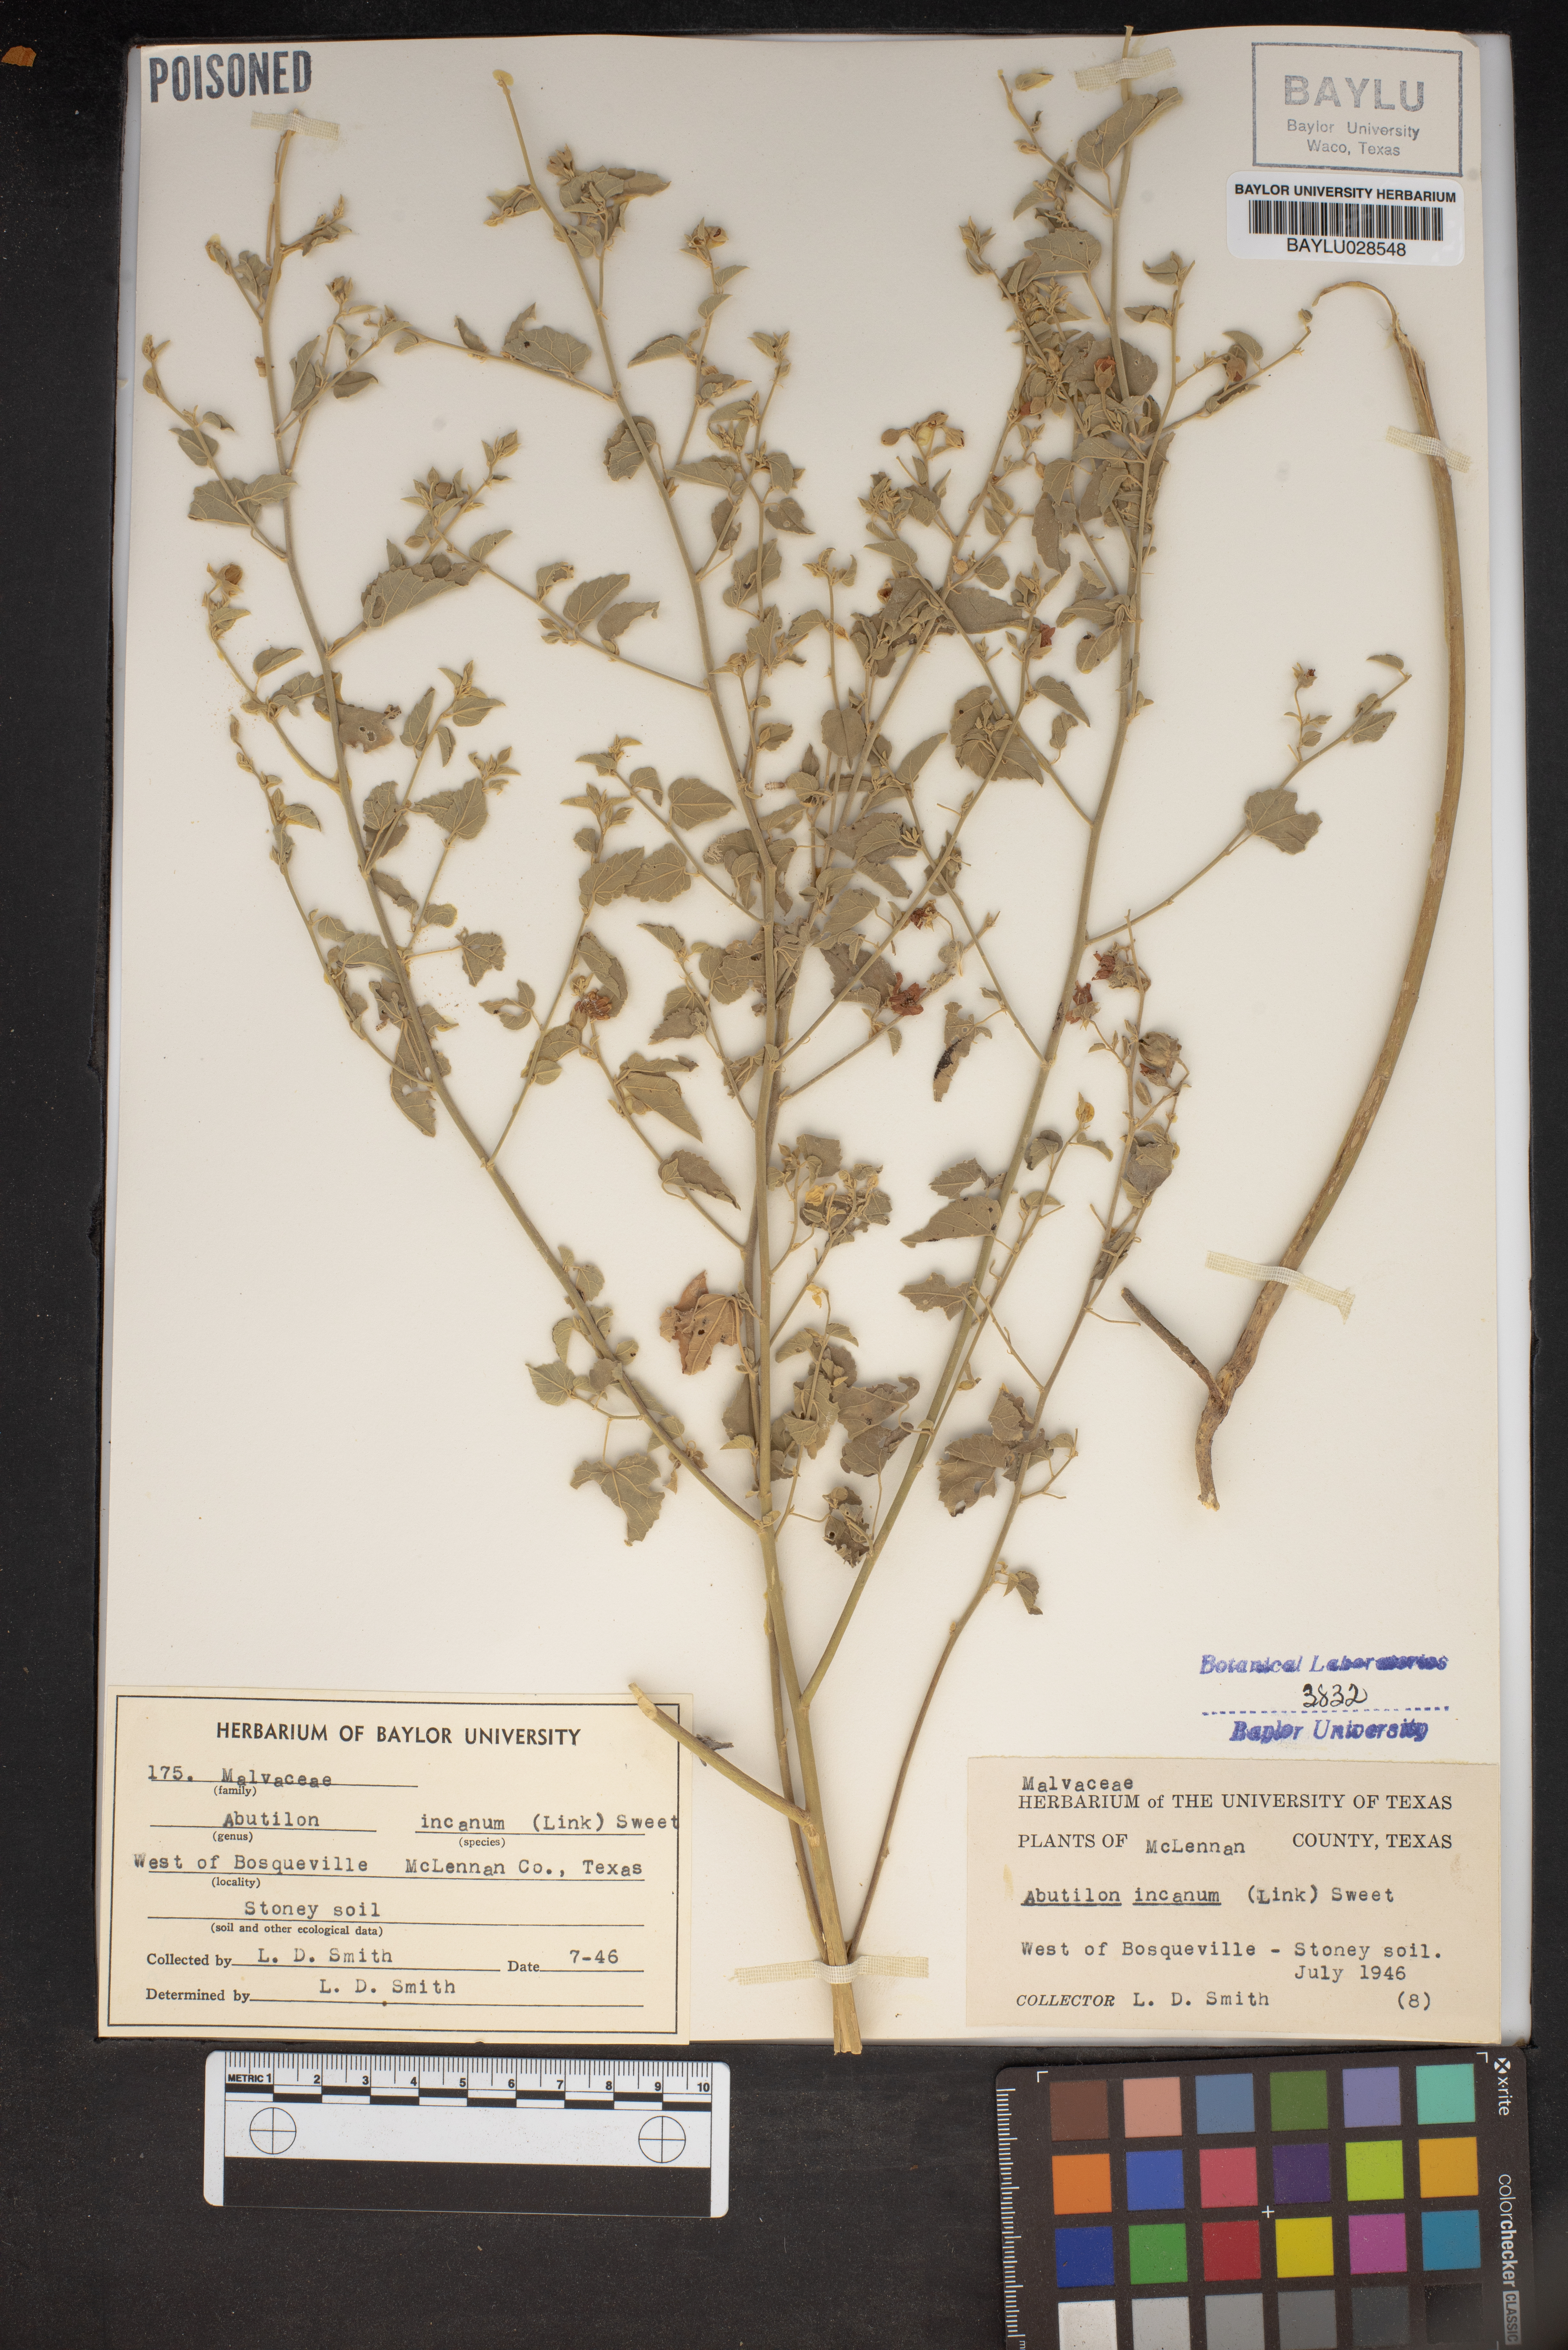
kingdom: Plantae
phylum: Tracheophyta
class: Magnoliopsida
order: Malvales
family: Malvaceae
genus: Abutilon
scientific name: Abutilon incanum
